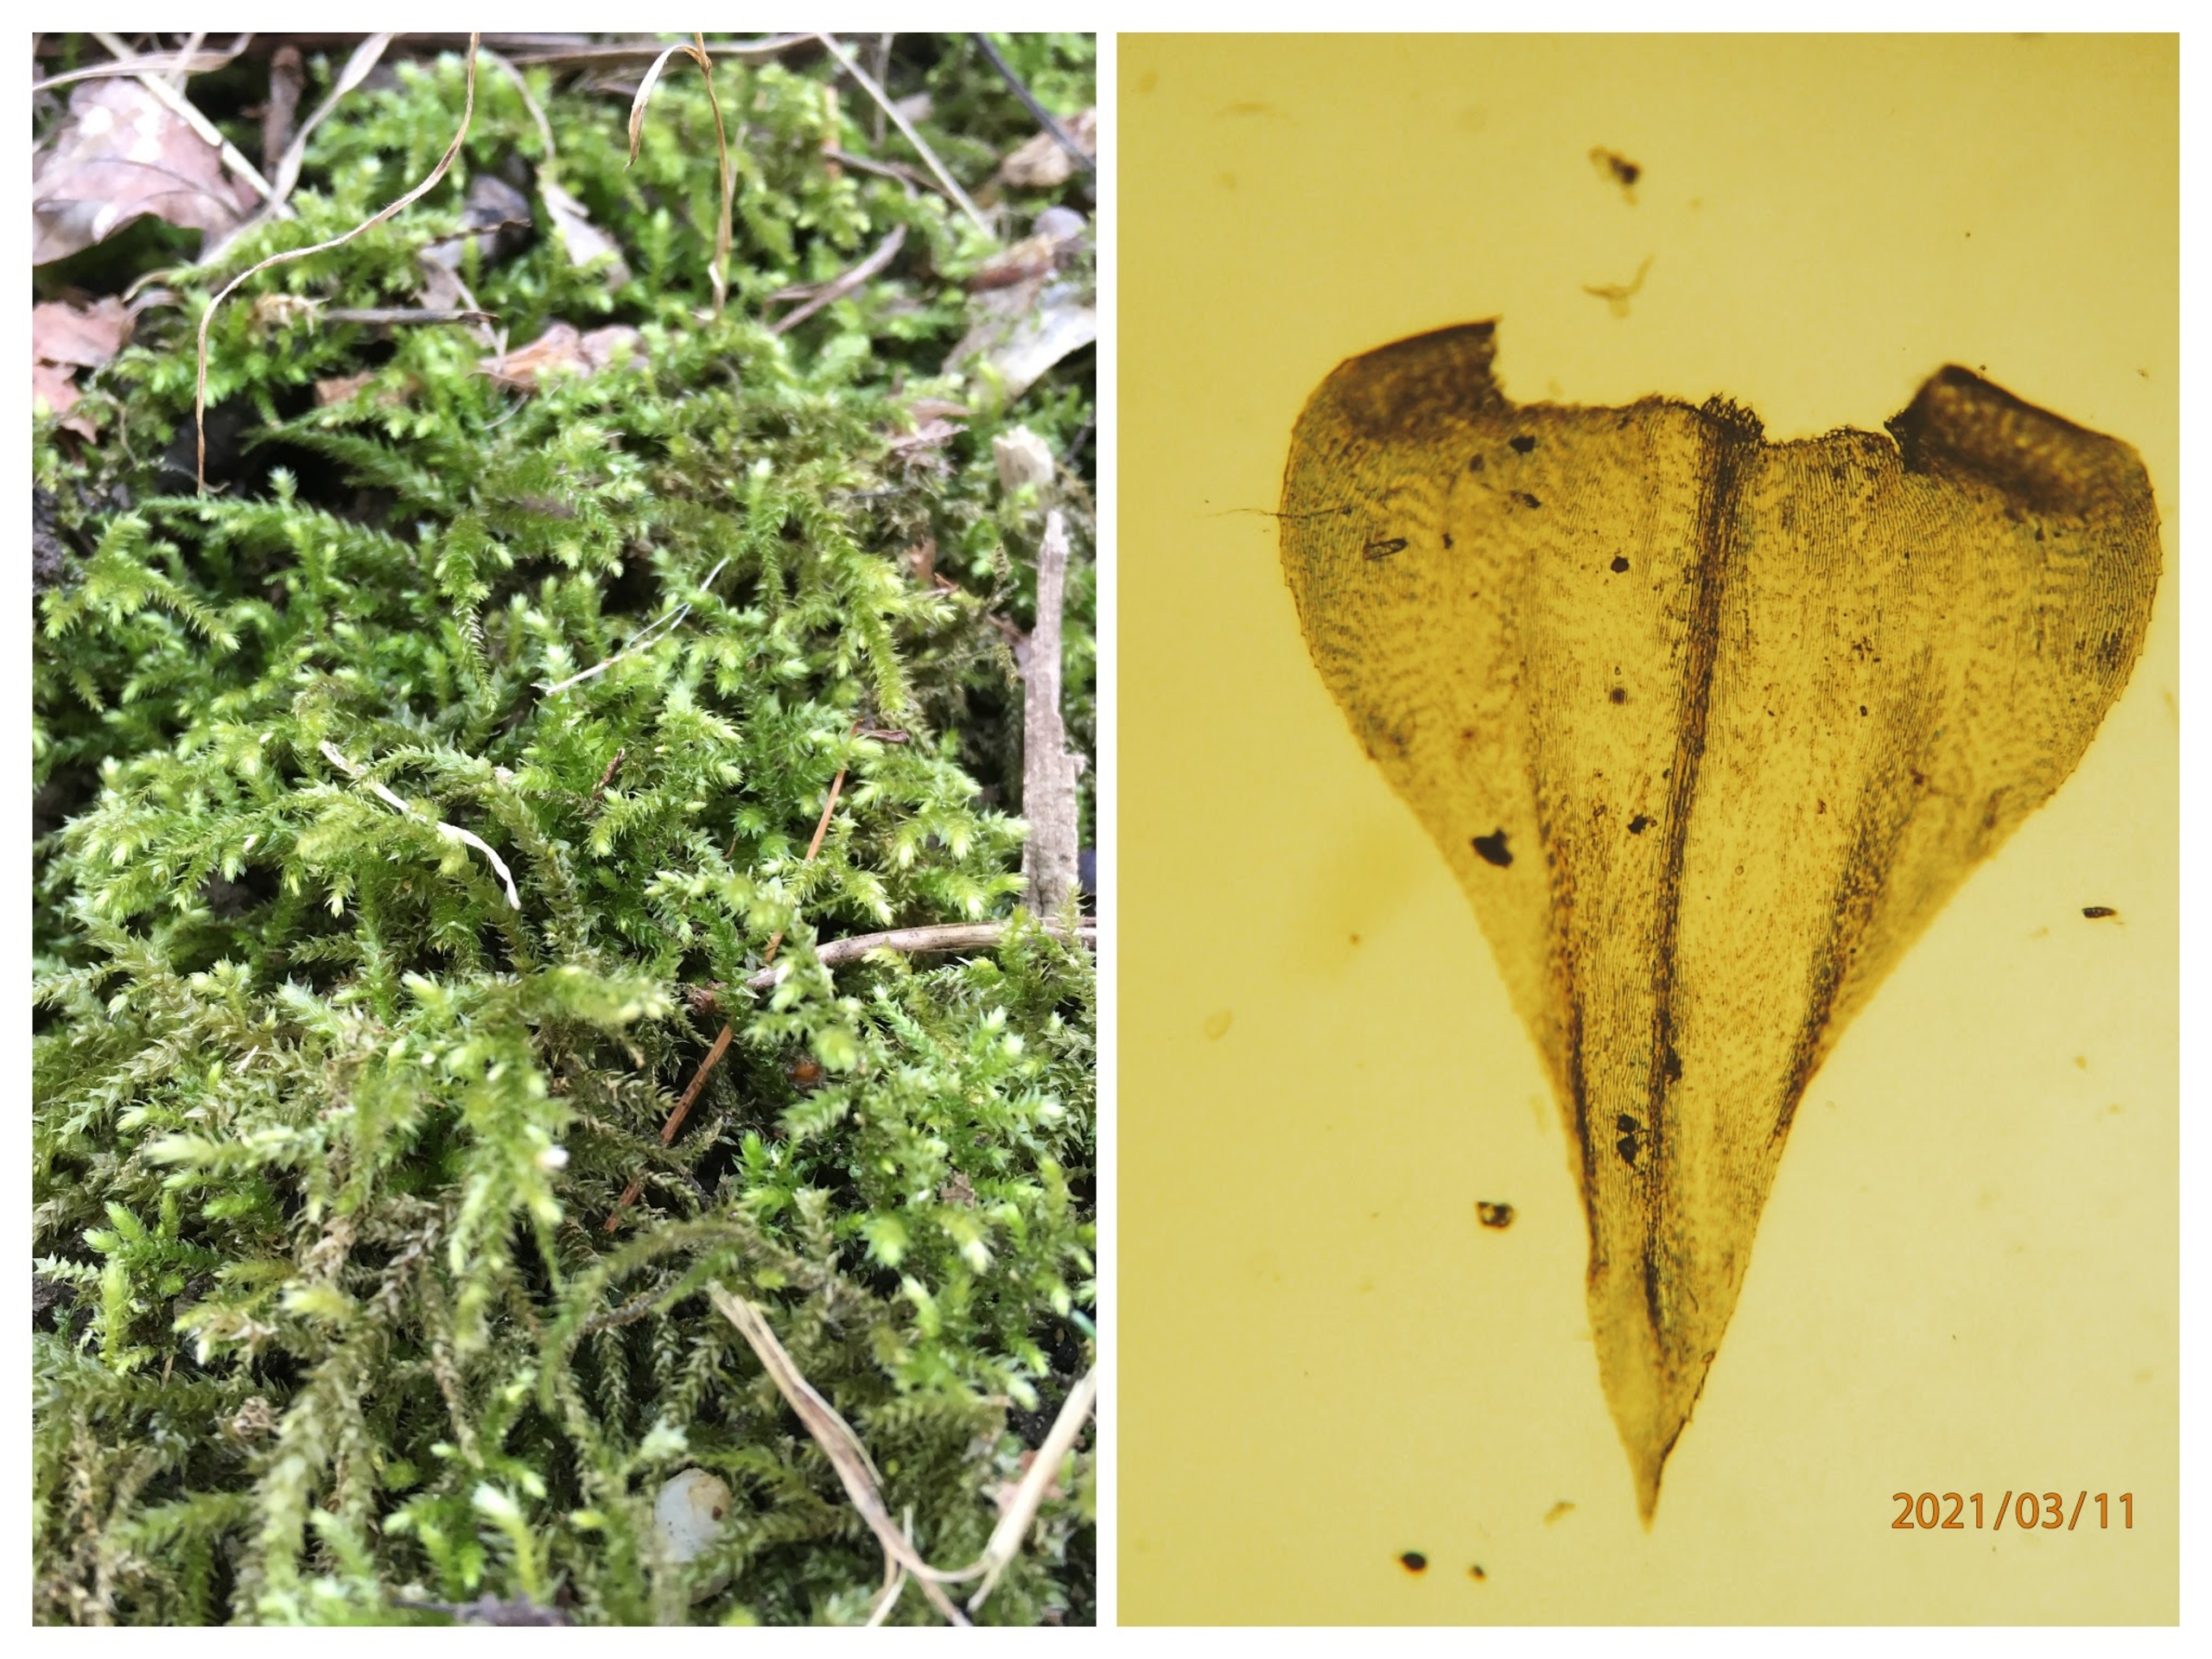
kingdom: Plantae
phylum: Bryophyta
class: Bryopsida
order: Hypnales
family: Brachytheciaceae
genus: Eurhynchium
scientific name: Eurhynchium striatum
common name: Stribet næbmos
